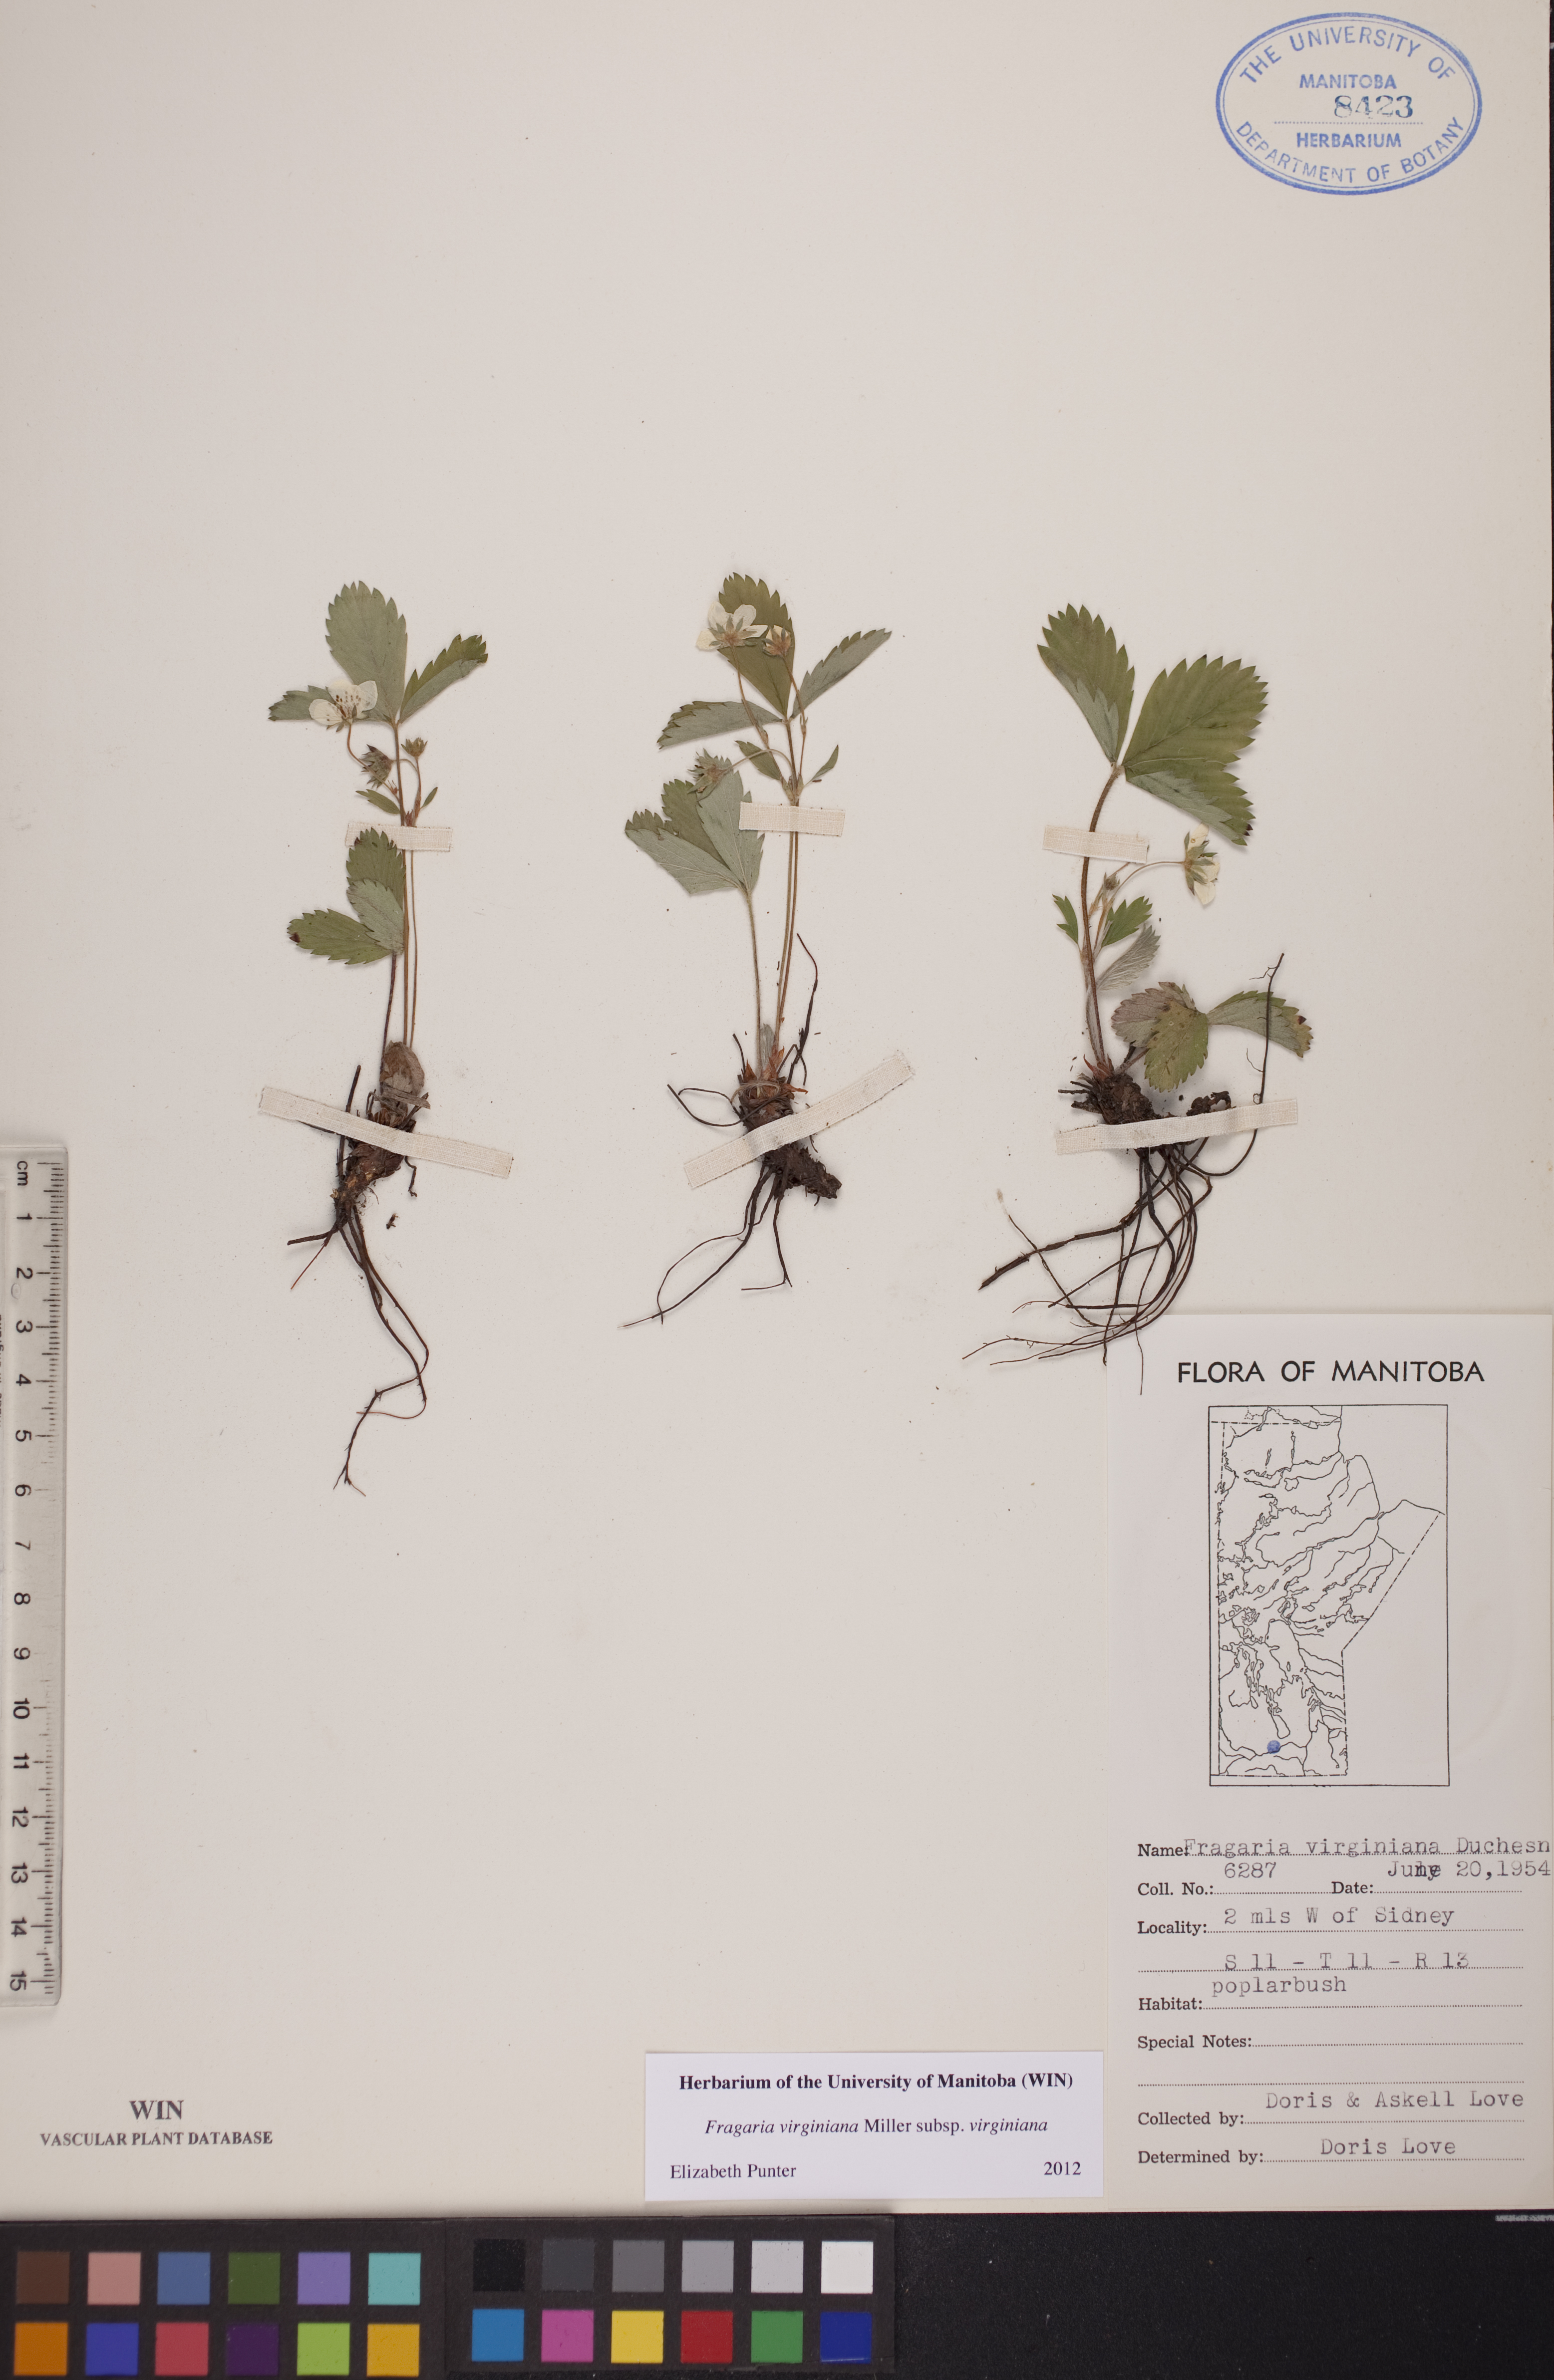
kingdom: Plantae
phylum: Tracheophyta
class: Magnoliopsida
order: Rosales
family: Rosaceae
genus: Fragaria
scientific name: Fragaria virginiana
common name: Thickleaved wild strawberry
